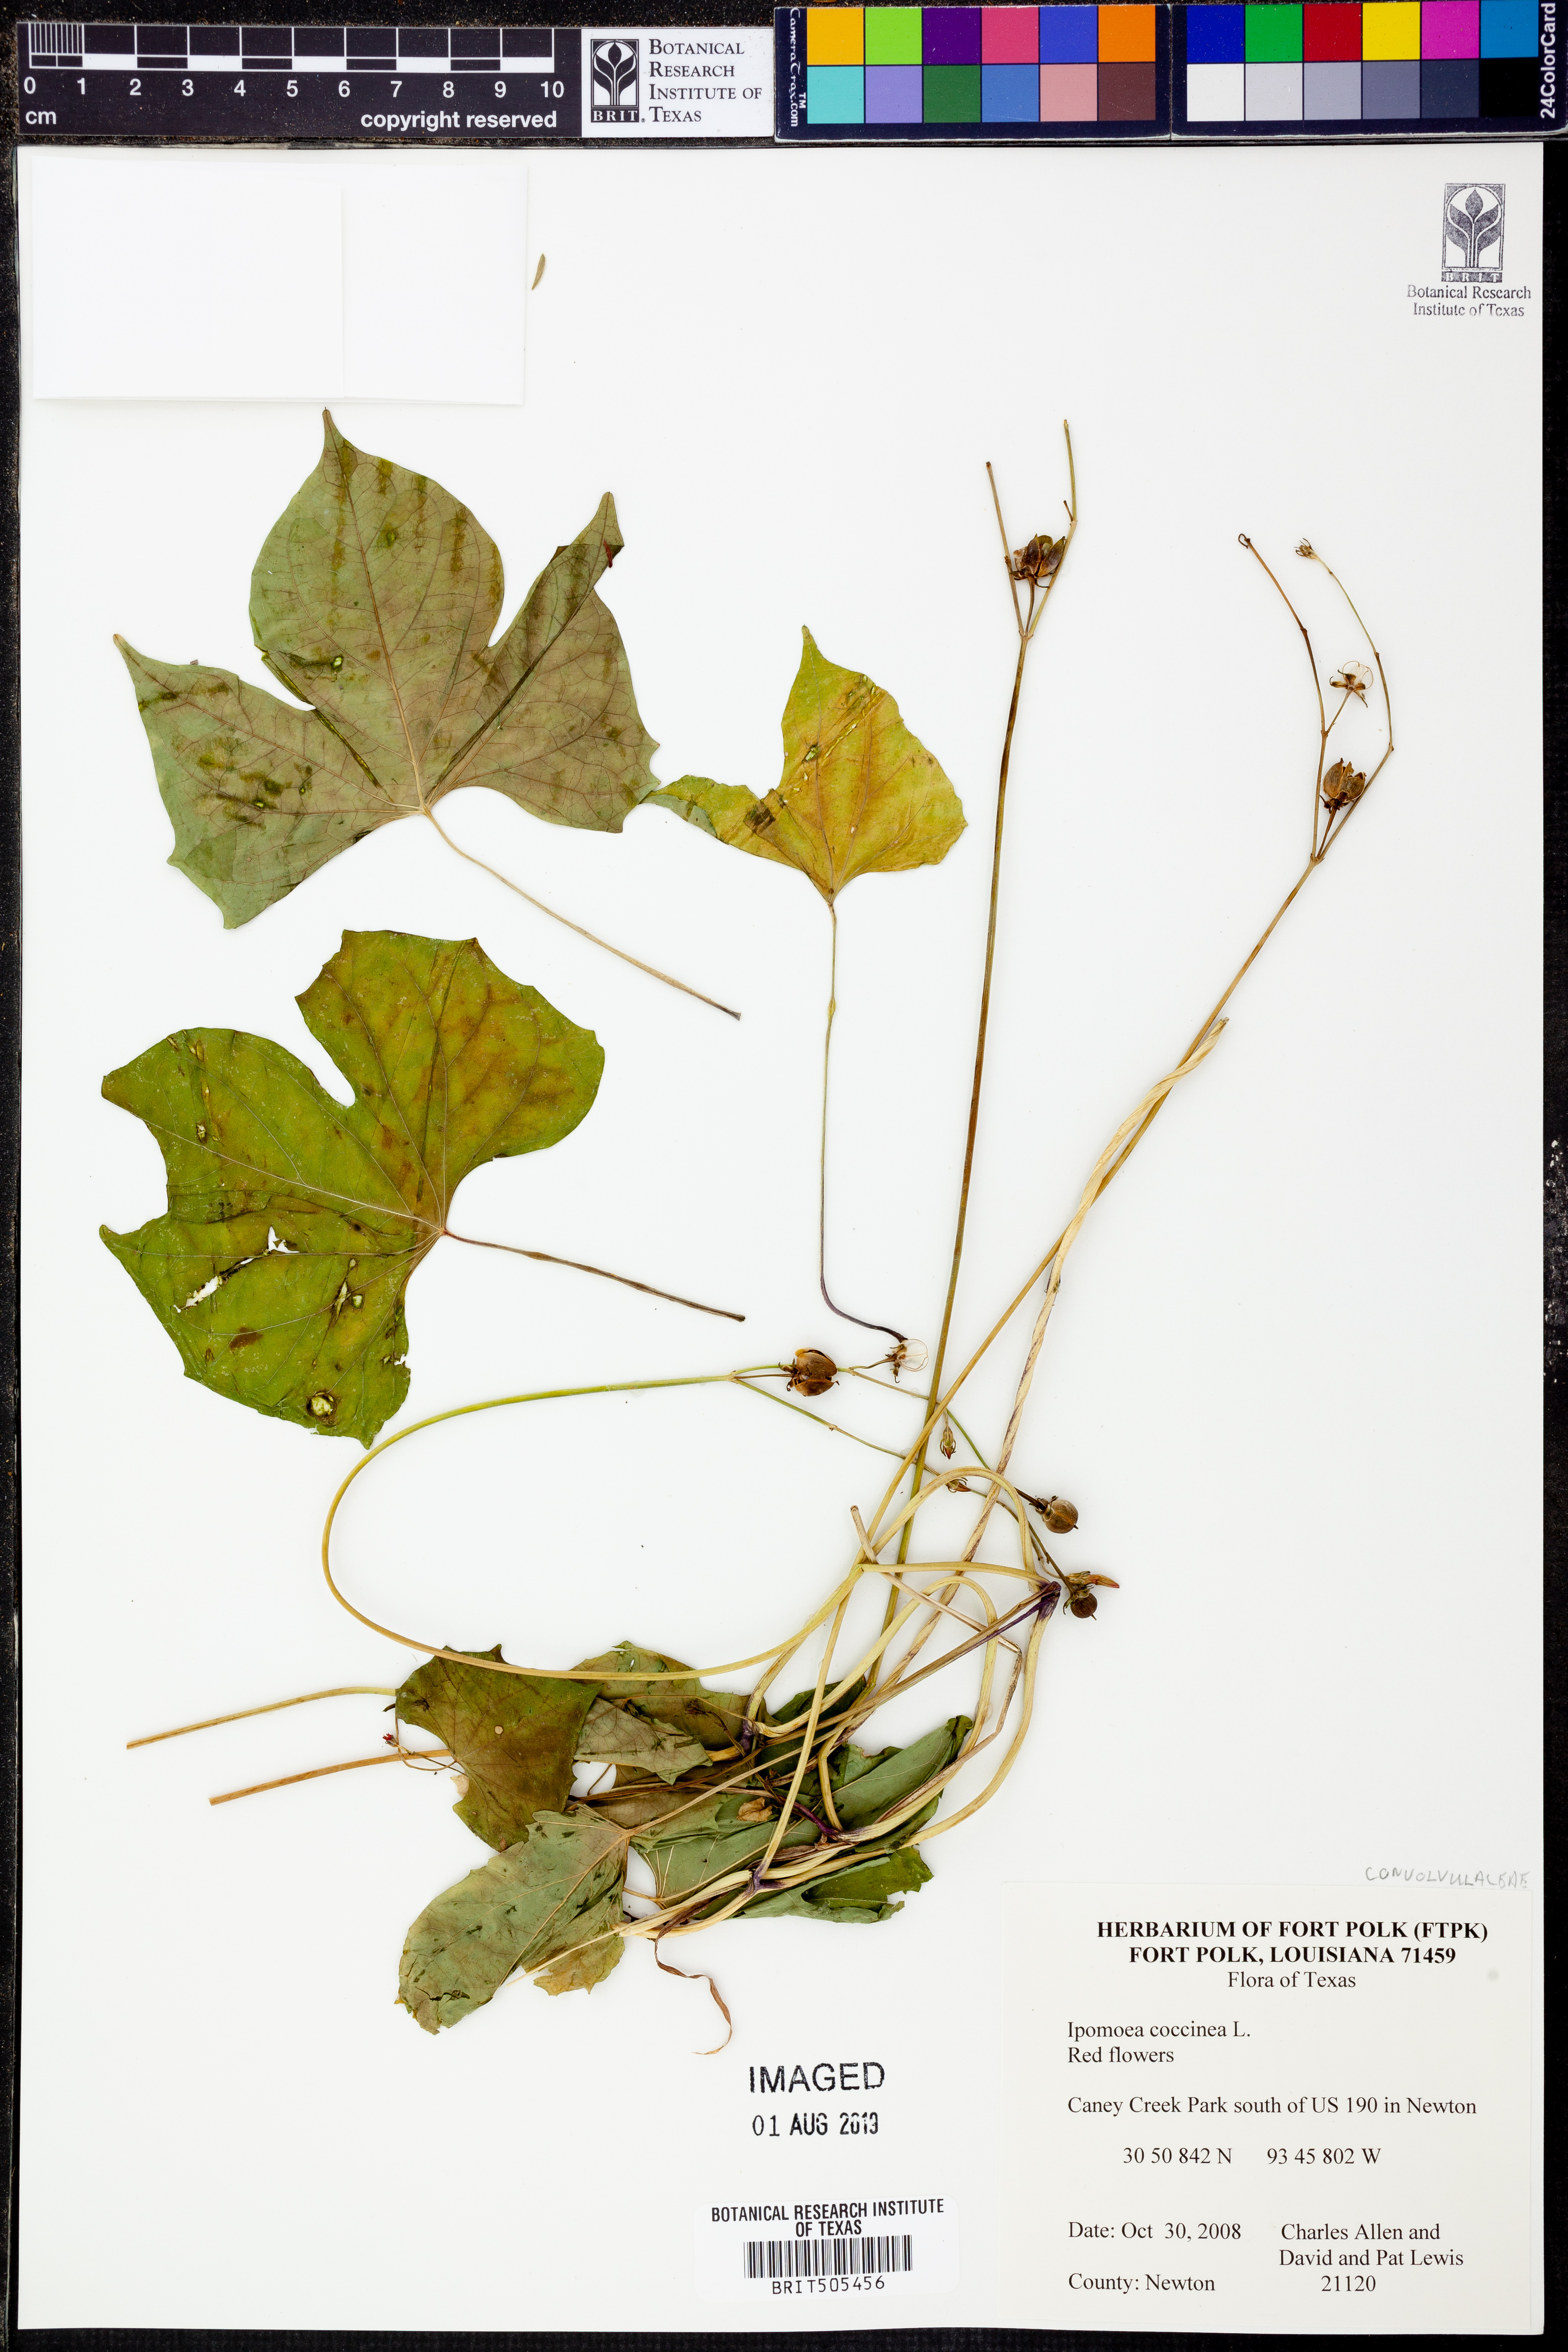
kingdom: Plantae
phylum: Tracheophyta
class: Magnoliopsida
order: Solanales
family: Convolvulaceae
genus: Ipomoea
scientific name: Ipomoea coccinea
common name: Red morning-glory
